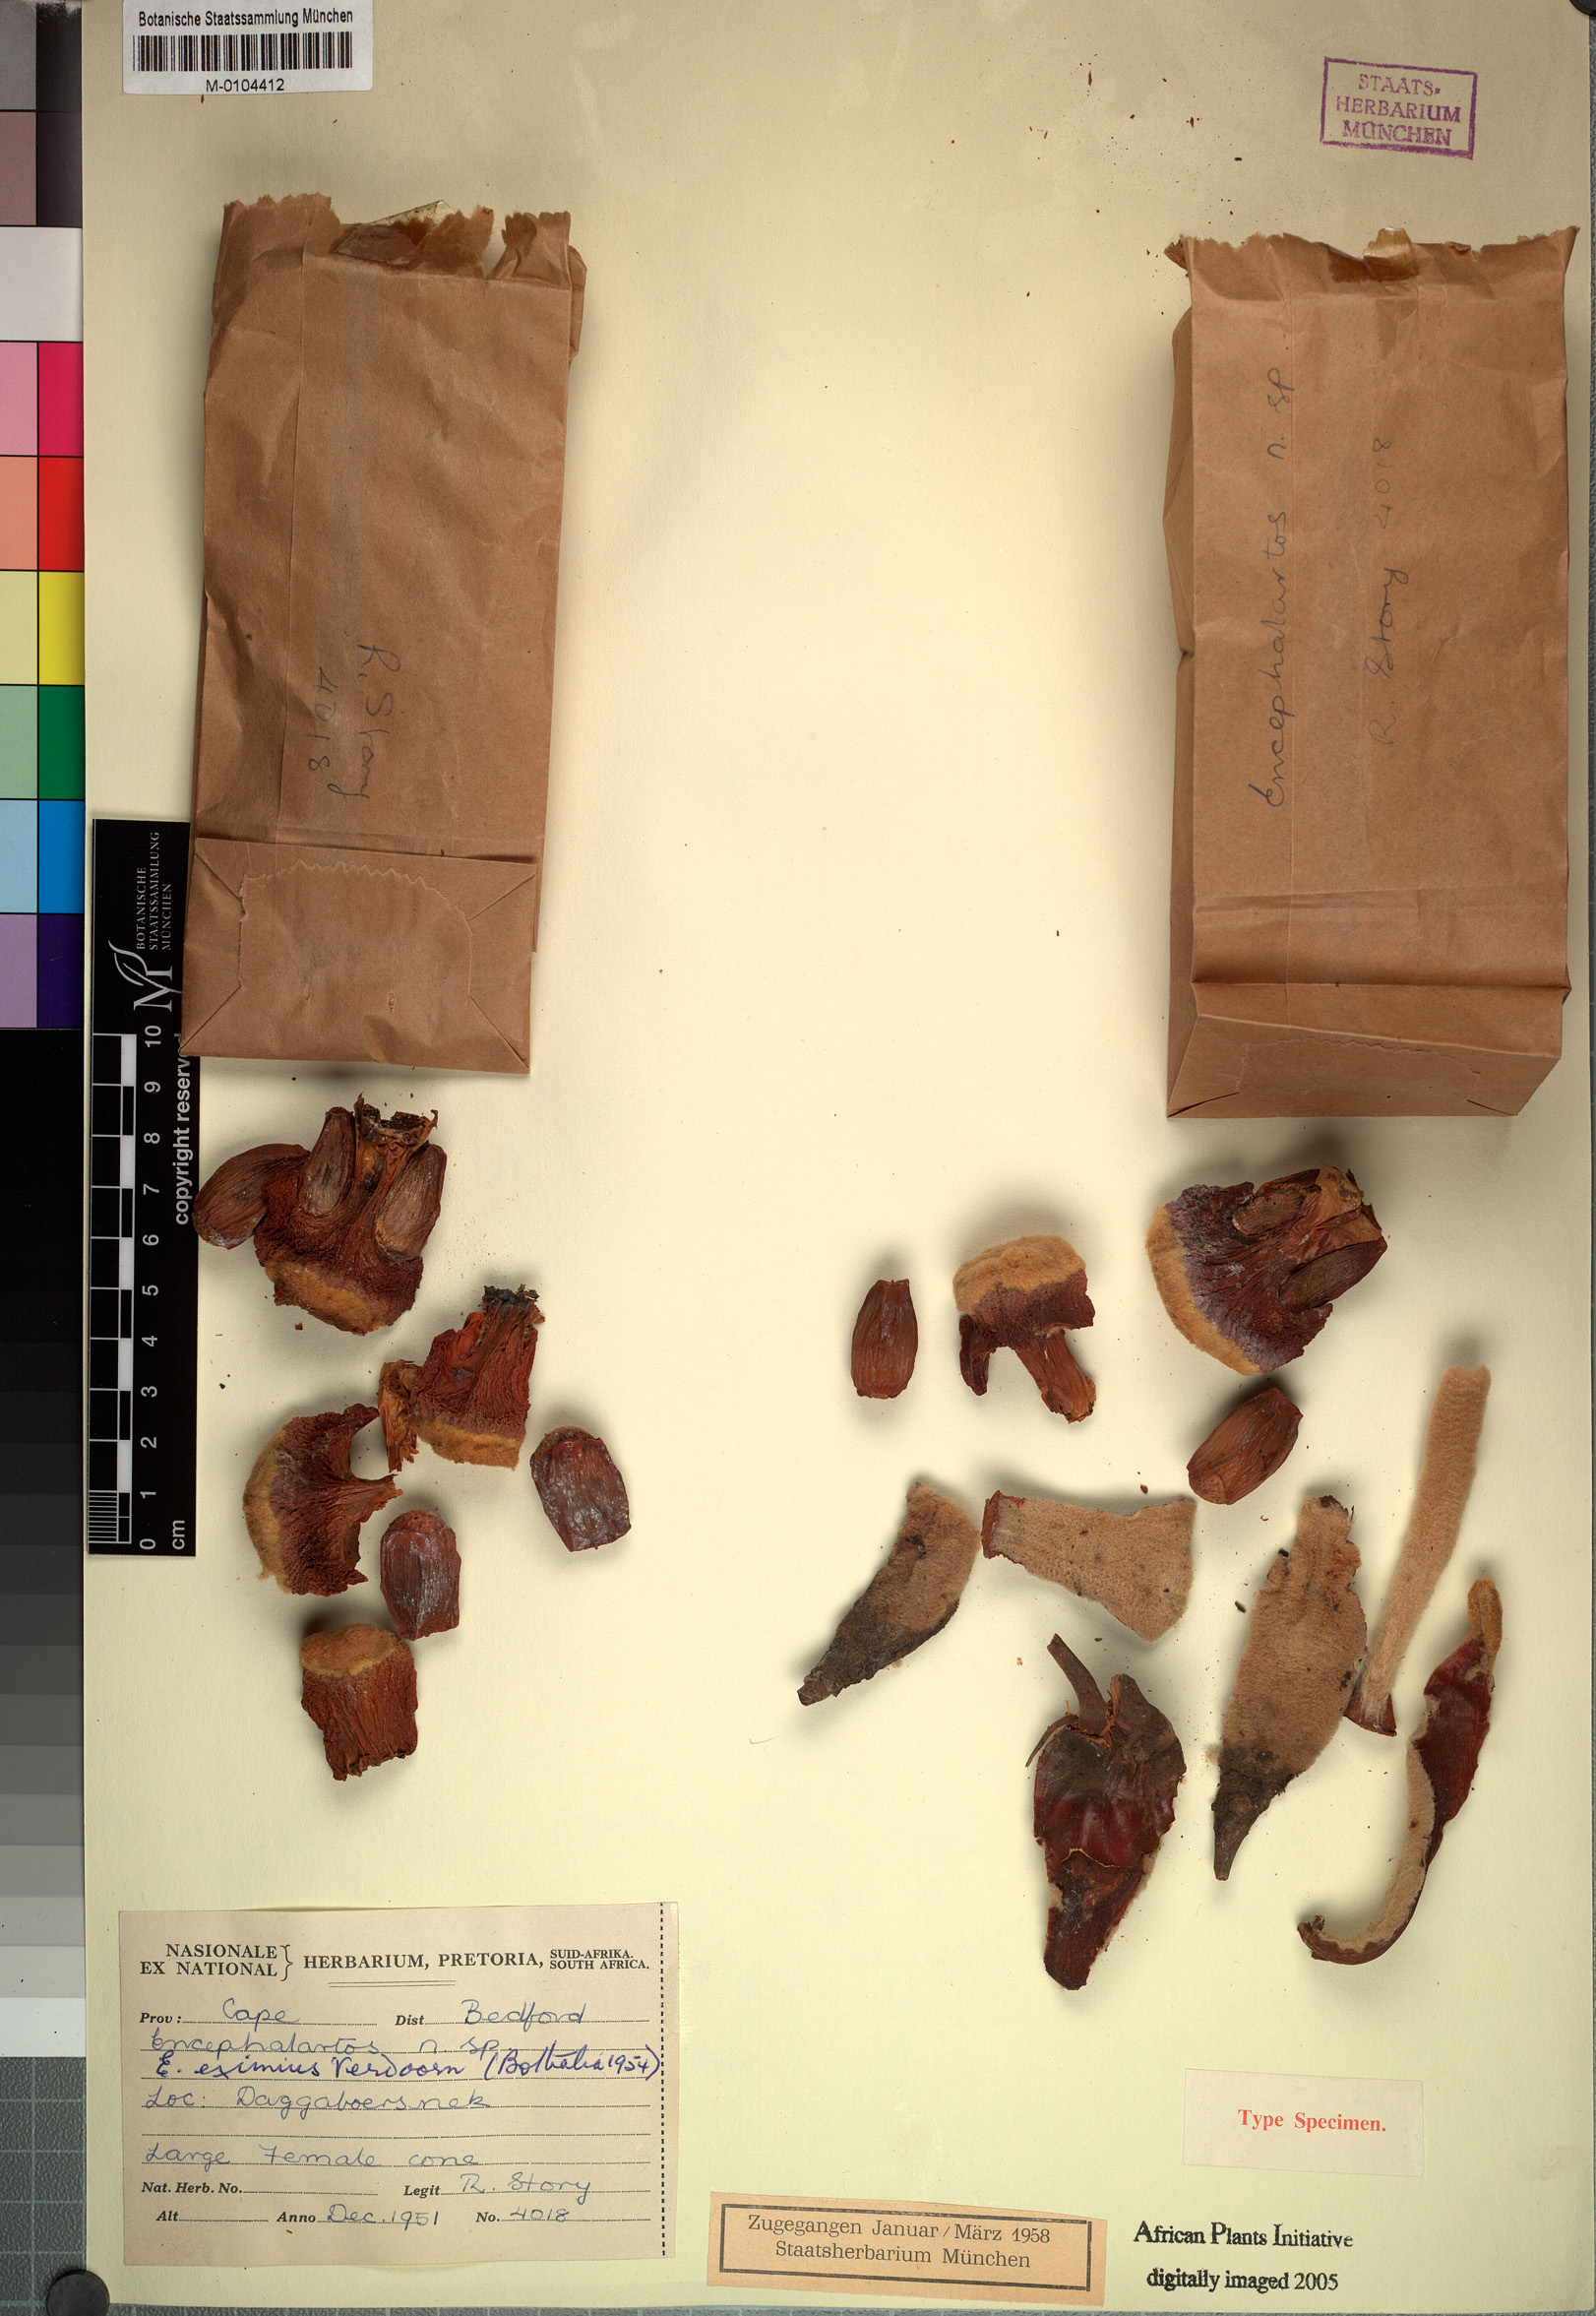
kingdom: Plantae
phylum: Tracheophyta
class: Cycadopsida
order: Cycadales
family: Zamiaceae
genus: Encephalartos
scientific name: Encephalartos cycadifolius
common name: Winterberg cycad
